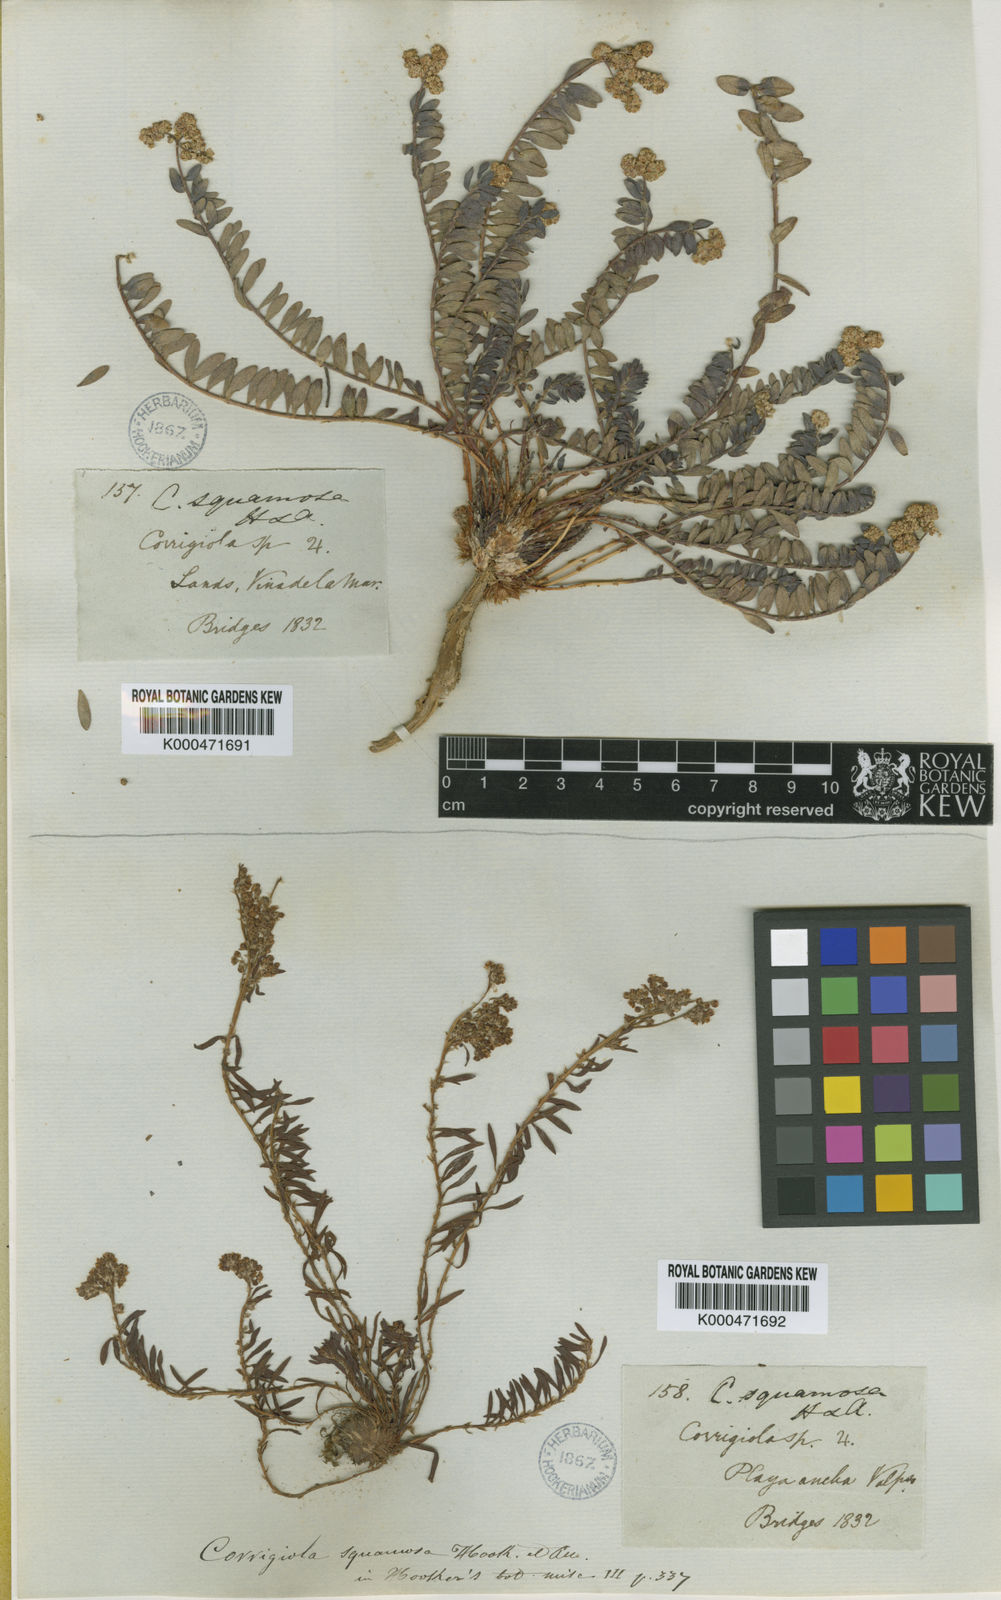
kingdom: Plantae
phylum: Tracheophyta
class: Magnoliopsida
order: Caryophyllales
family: Caryophyllaceae
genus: Corrigiola
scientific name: Corrigiola squamosa
